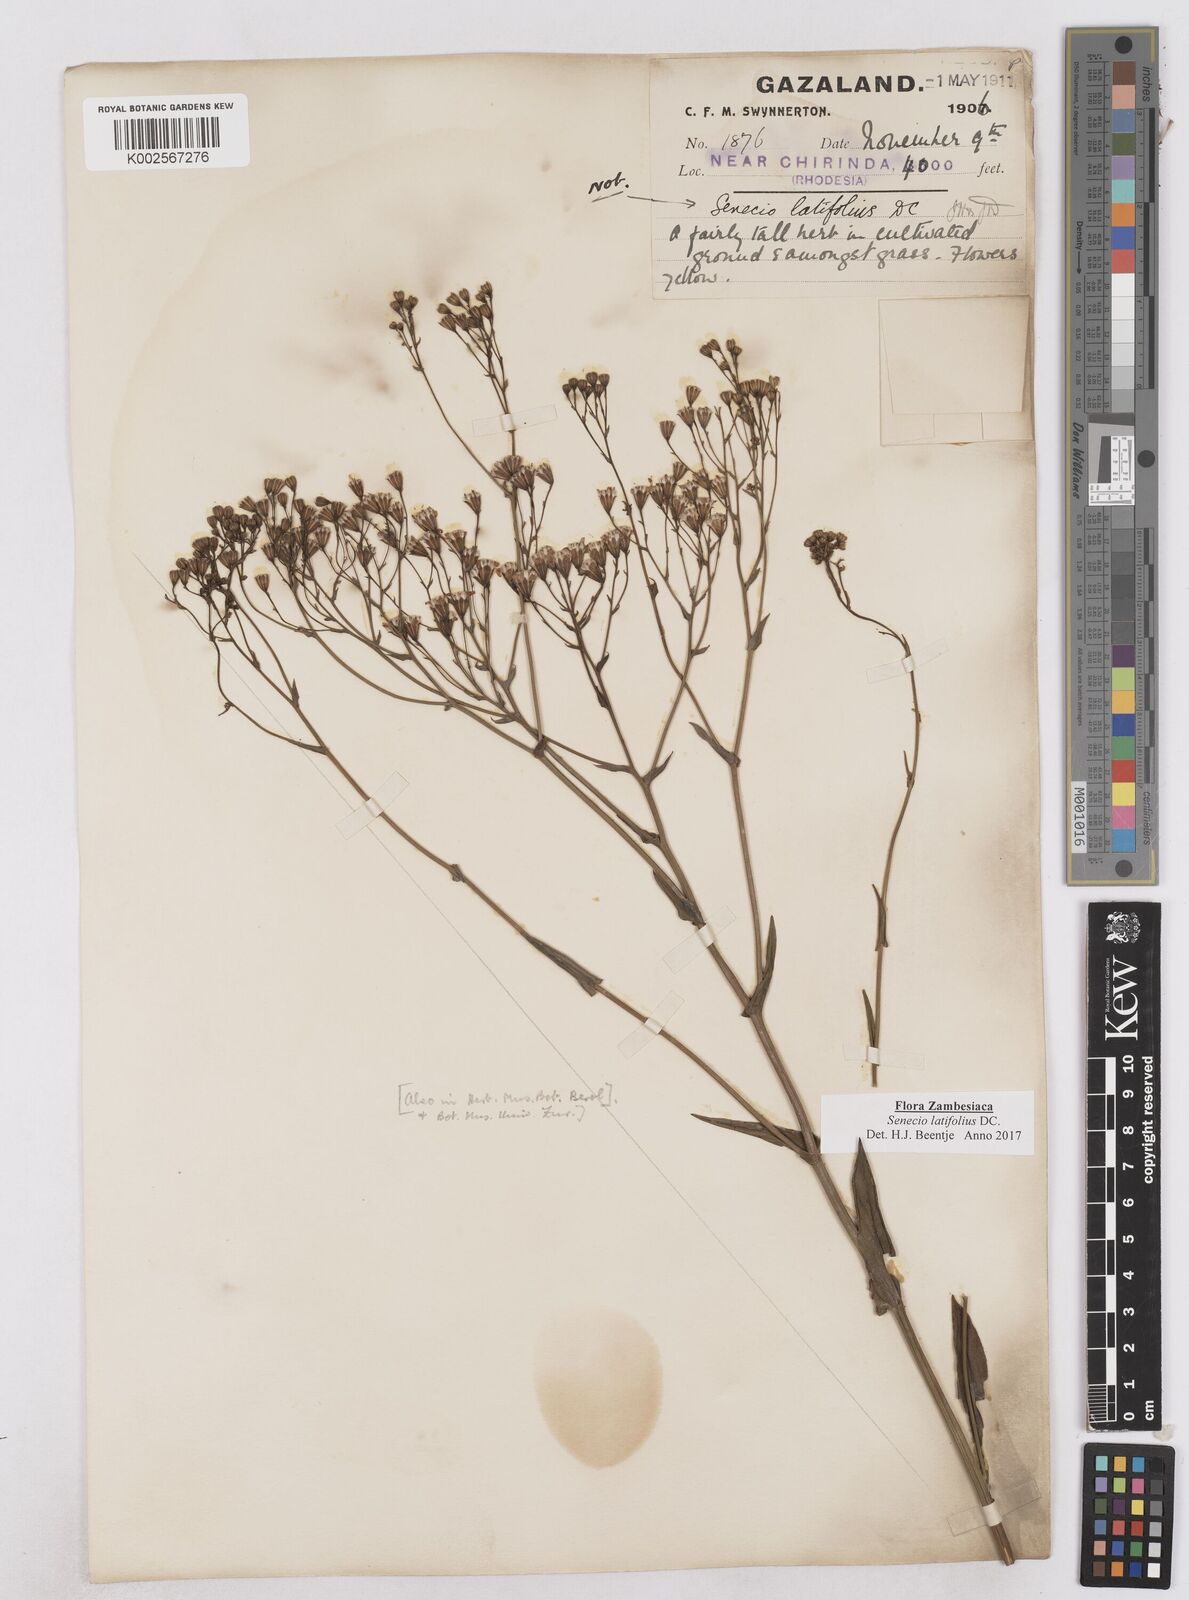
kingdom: Plantae
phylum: Tracheophyta
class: Magnoliopsida
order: Asterales
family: Asteraceae
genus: Senecio
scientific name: Senecio latifolius
